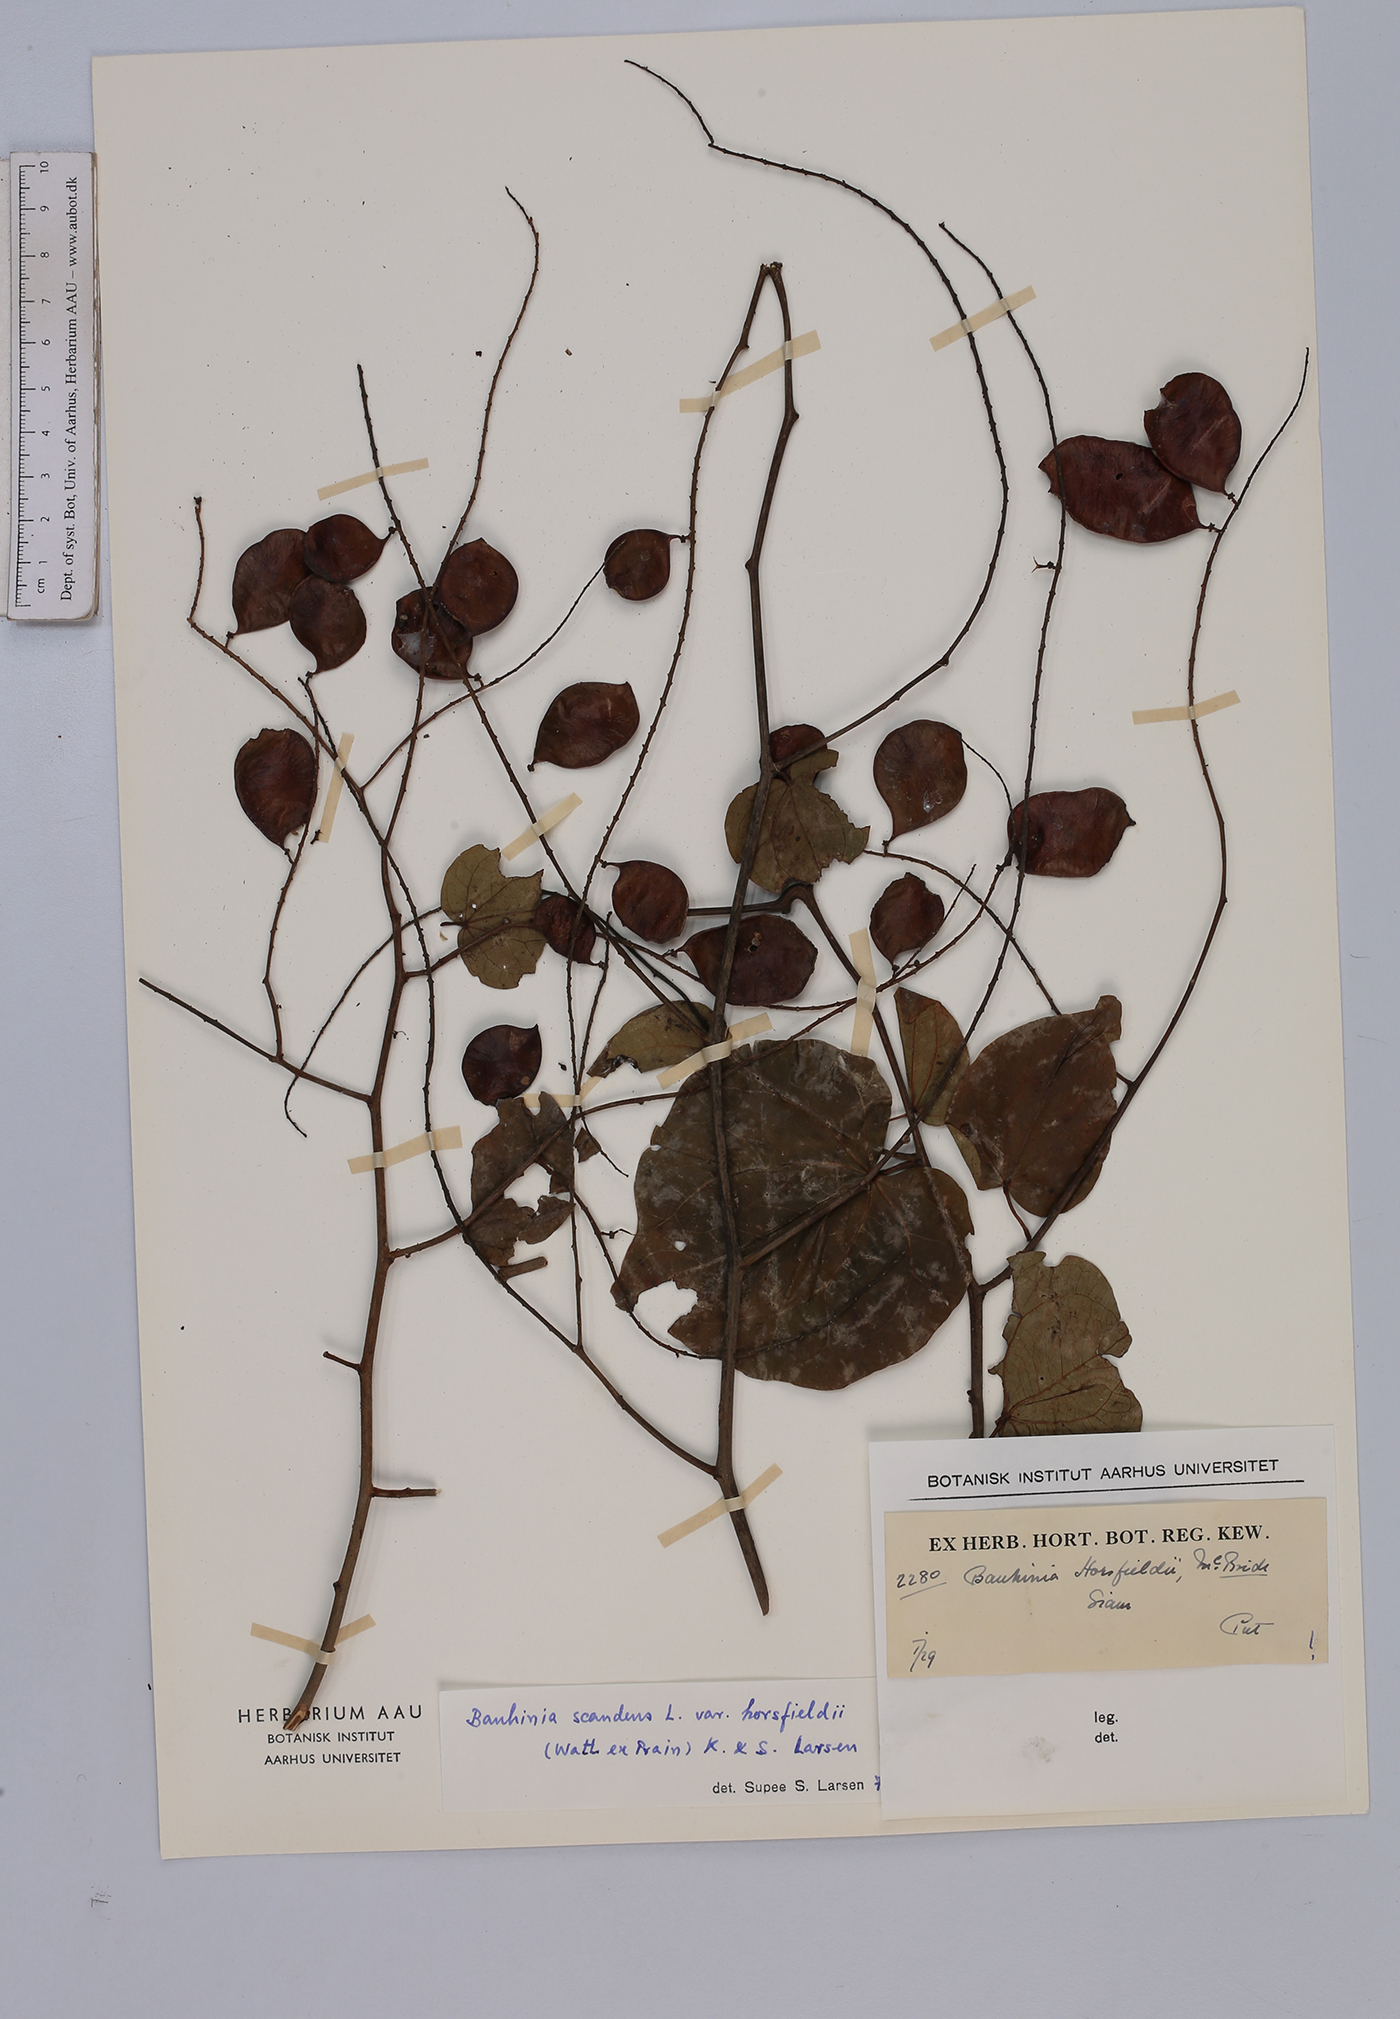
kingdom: Plantae
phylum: Tracheophyta
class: Magnoliopsida
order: Fabales
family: Fabaceae
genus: Phanera
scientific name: Phanera scandens
